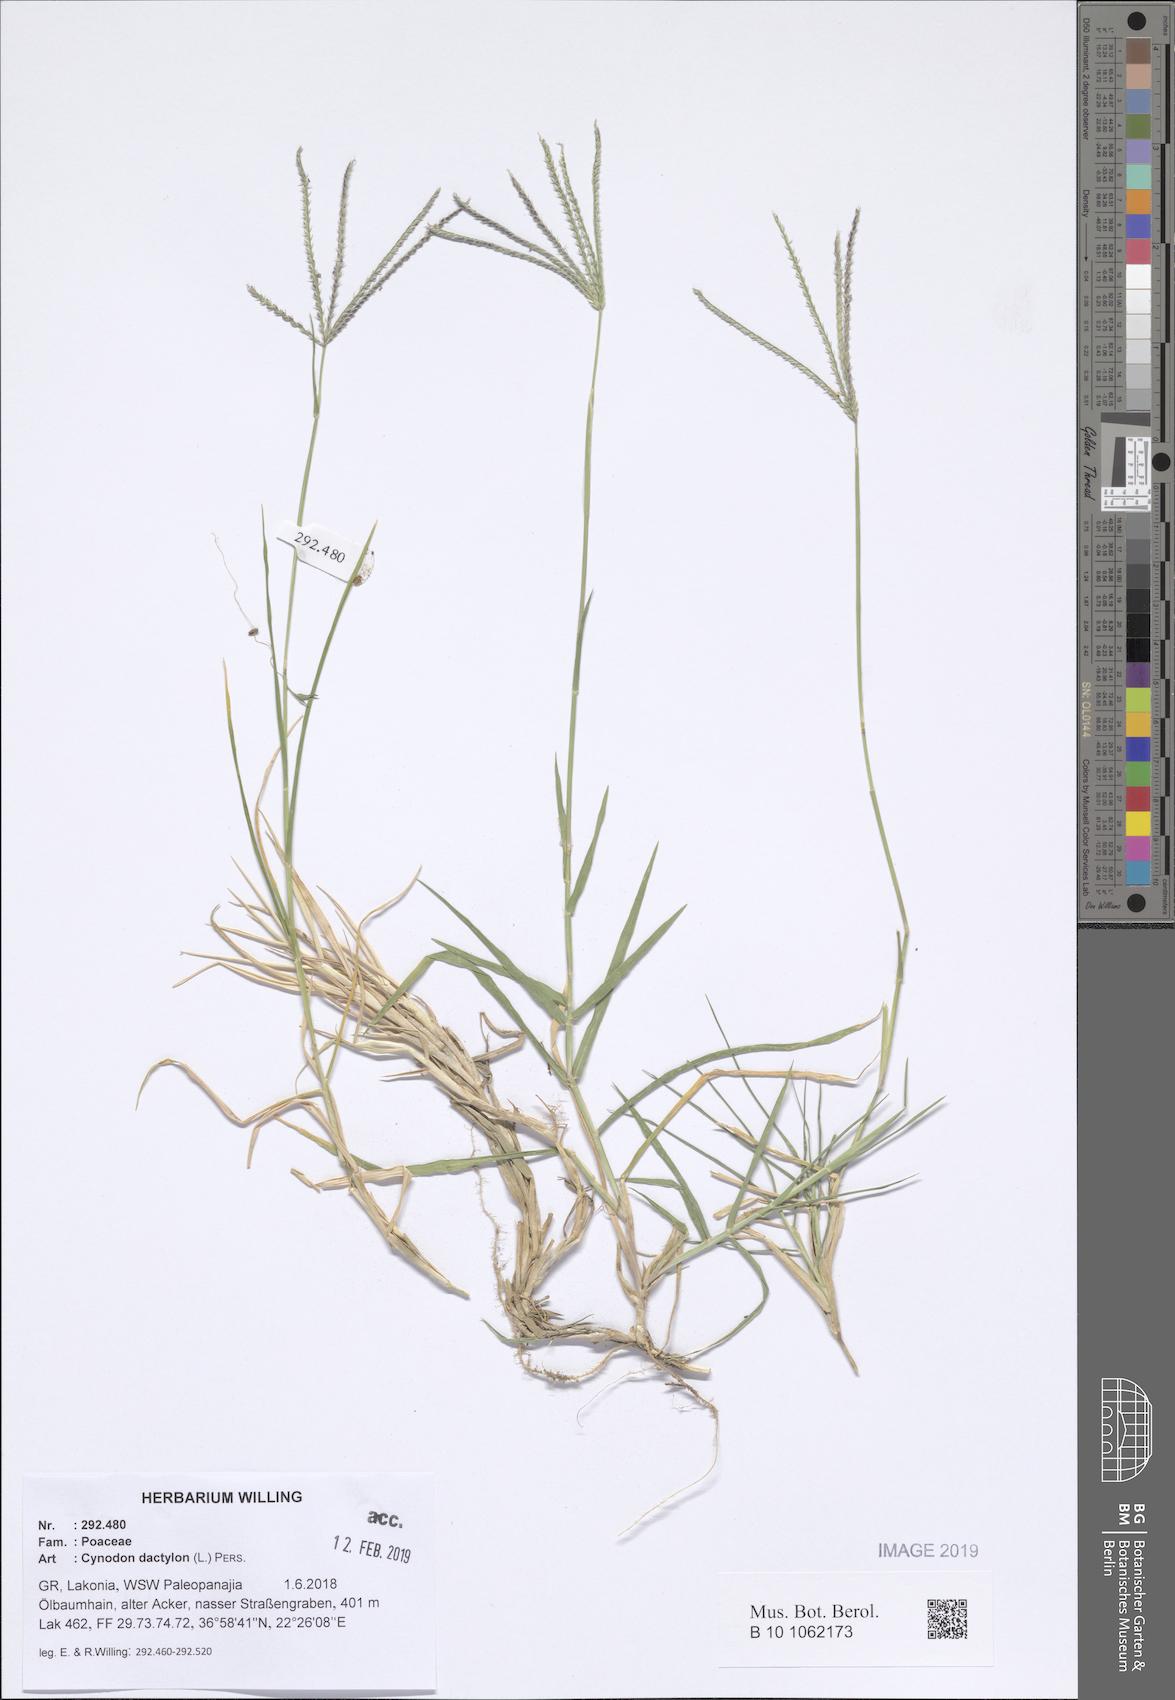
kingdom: Plantae
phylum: Tracheophyta
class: Liliopsida
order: Poales
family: Poaceae
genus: Cynodon
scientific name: Cynodon dactylon
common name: Bermuda grass
